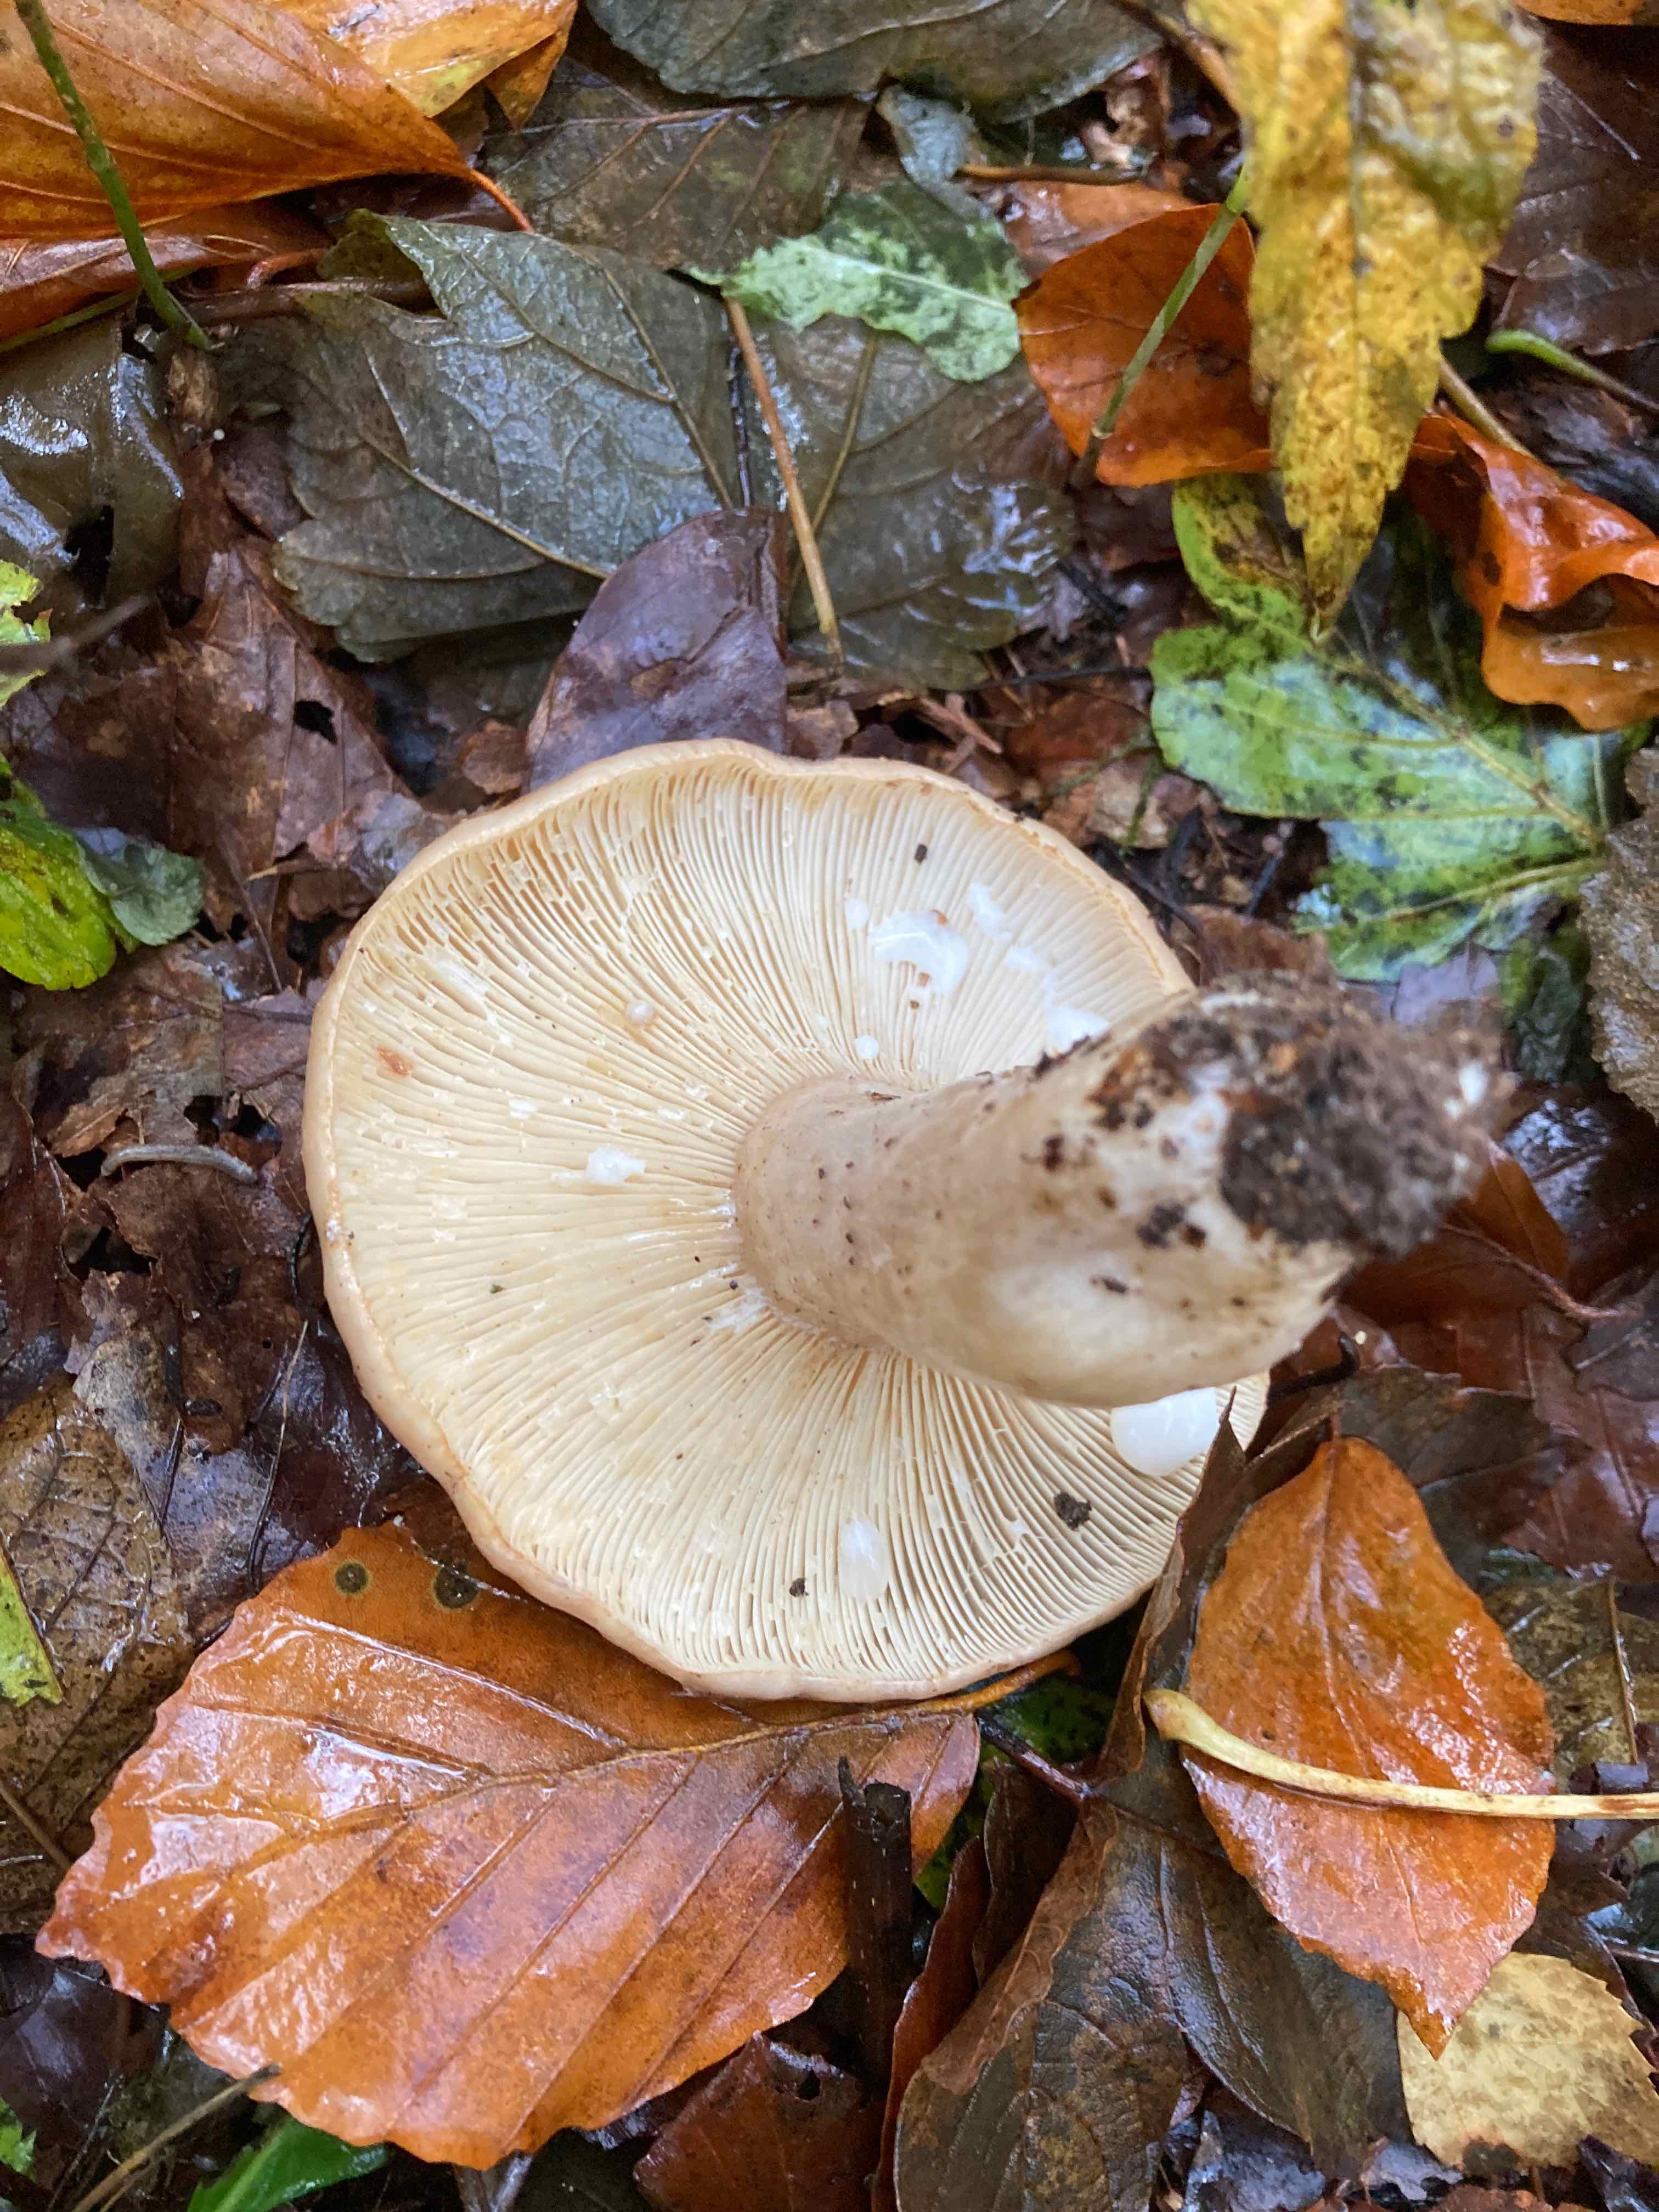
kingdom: Fungi
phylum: Basidiomycota
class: Agaricomycetes
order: Russulales
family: Russulaceae
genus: Lactarius
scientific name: Lactarius pallidus
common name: bleg mælkehat
